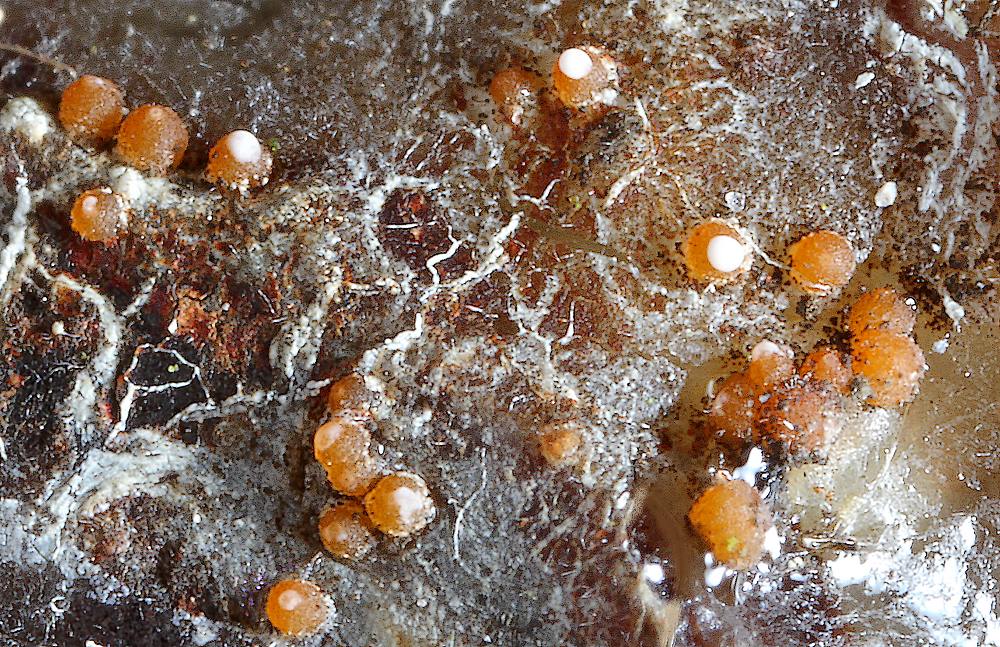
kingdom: Fungi
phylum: Ascomycota
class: Sareomycetes
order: Sareales
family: Sareaceae
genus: Sarea
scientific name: Sarea resinae
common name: orangegul harpiksskive
